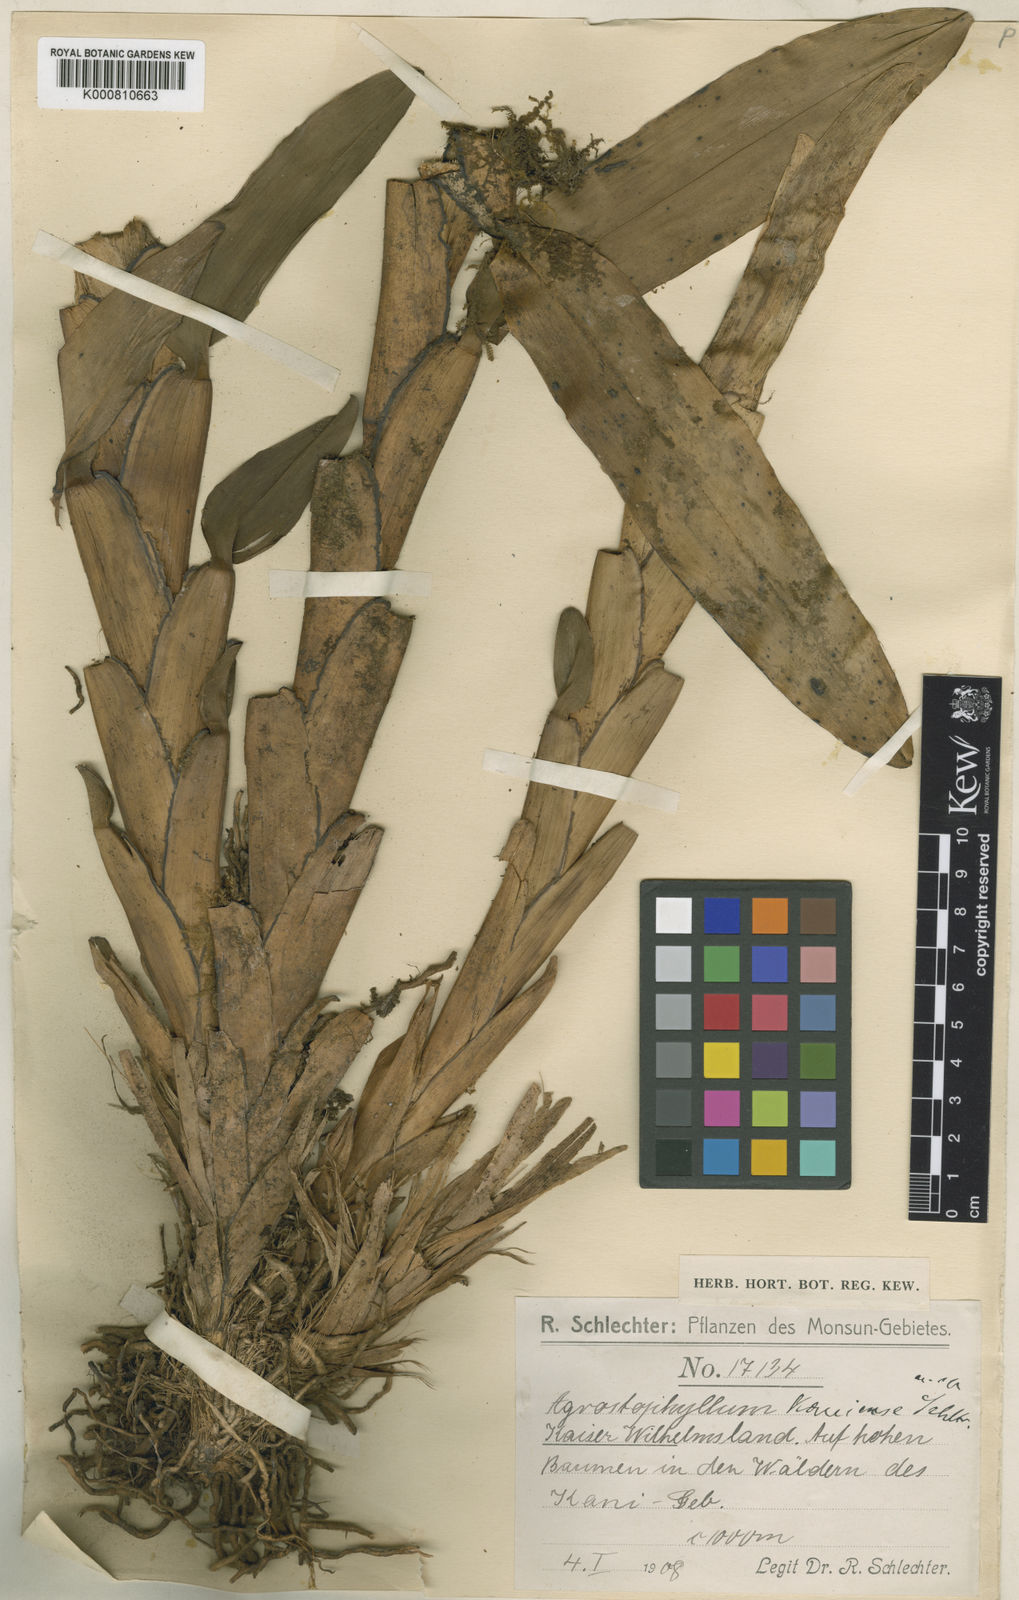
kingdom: Plantae
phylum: Tracheophyta
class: Liliopsida
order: Asparagales
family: Orchidaceae
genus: Agrostophyllum
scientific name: Agrostophyllum kaniense
